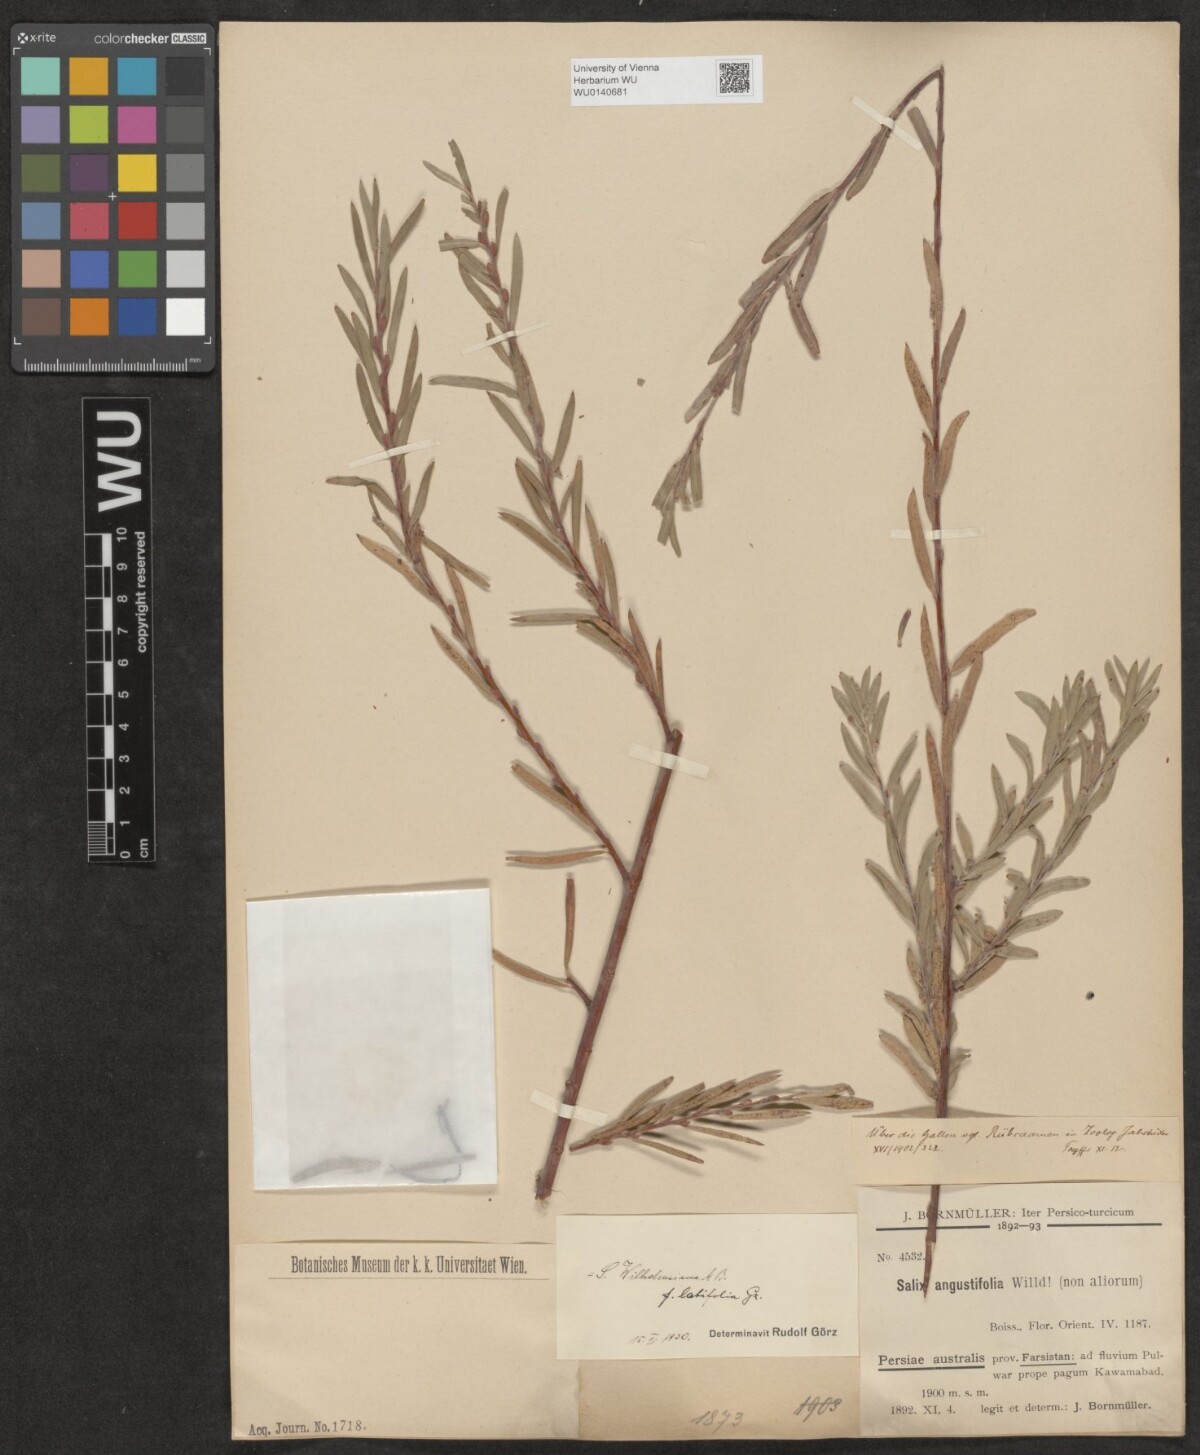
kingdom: Plantae
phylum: Tracheophyta
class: Magnoliopsida
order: Malpighiales
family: Salicaceae
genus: Salix
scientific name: Salix wilhelmsiana
